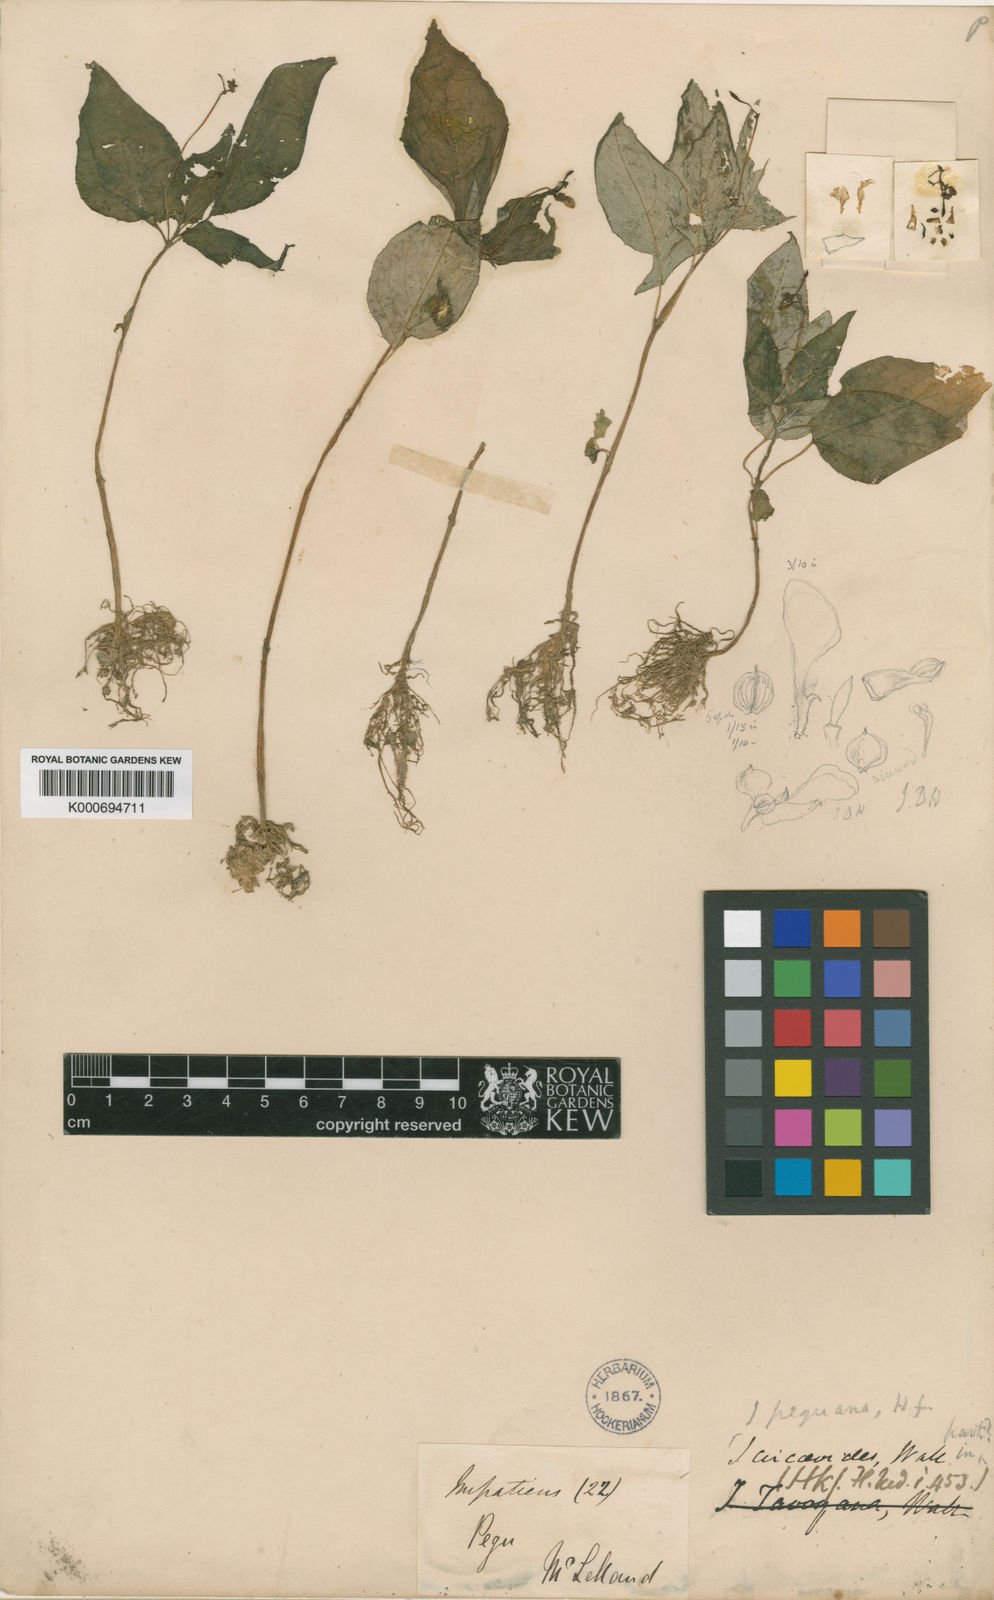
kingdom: Plantae
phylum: Tracheophyta
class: Magnoliopsida
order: Ericales
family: Balsaminaceae
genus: Impatiens
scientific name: Impatiens
